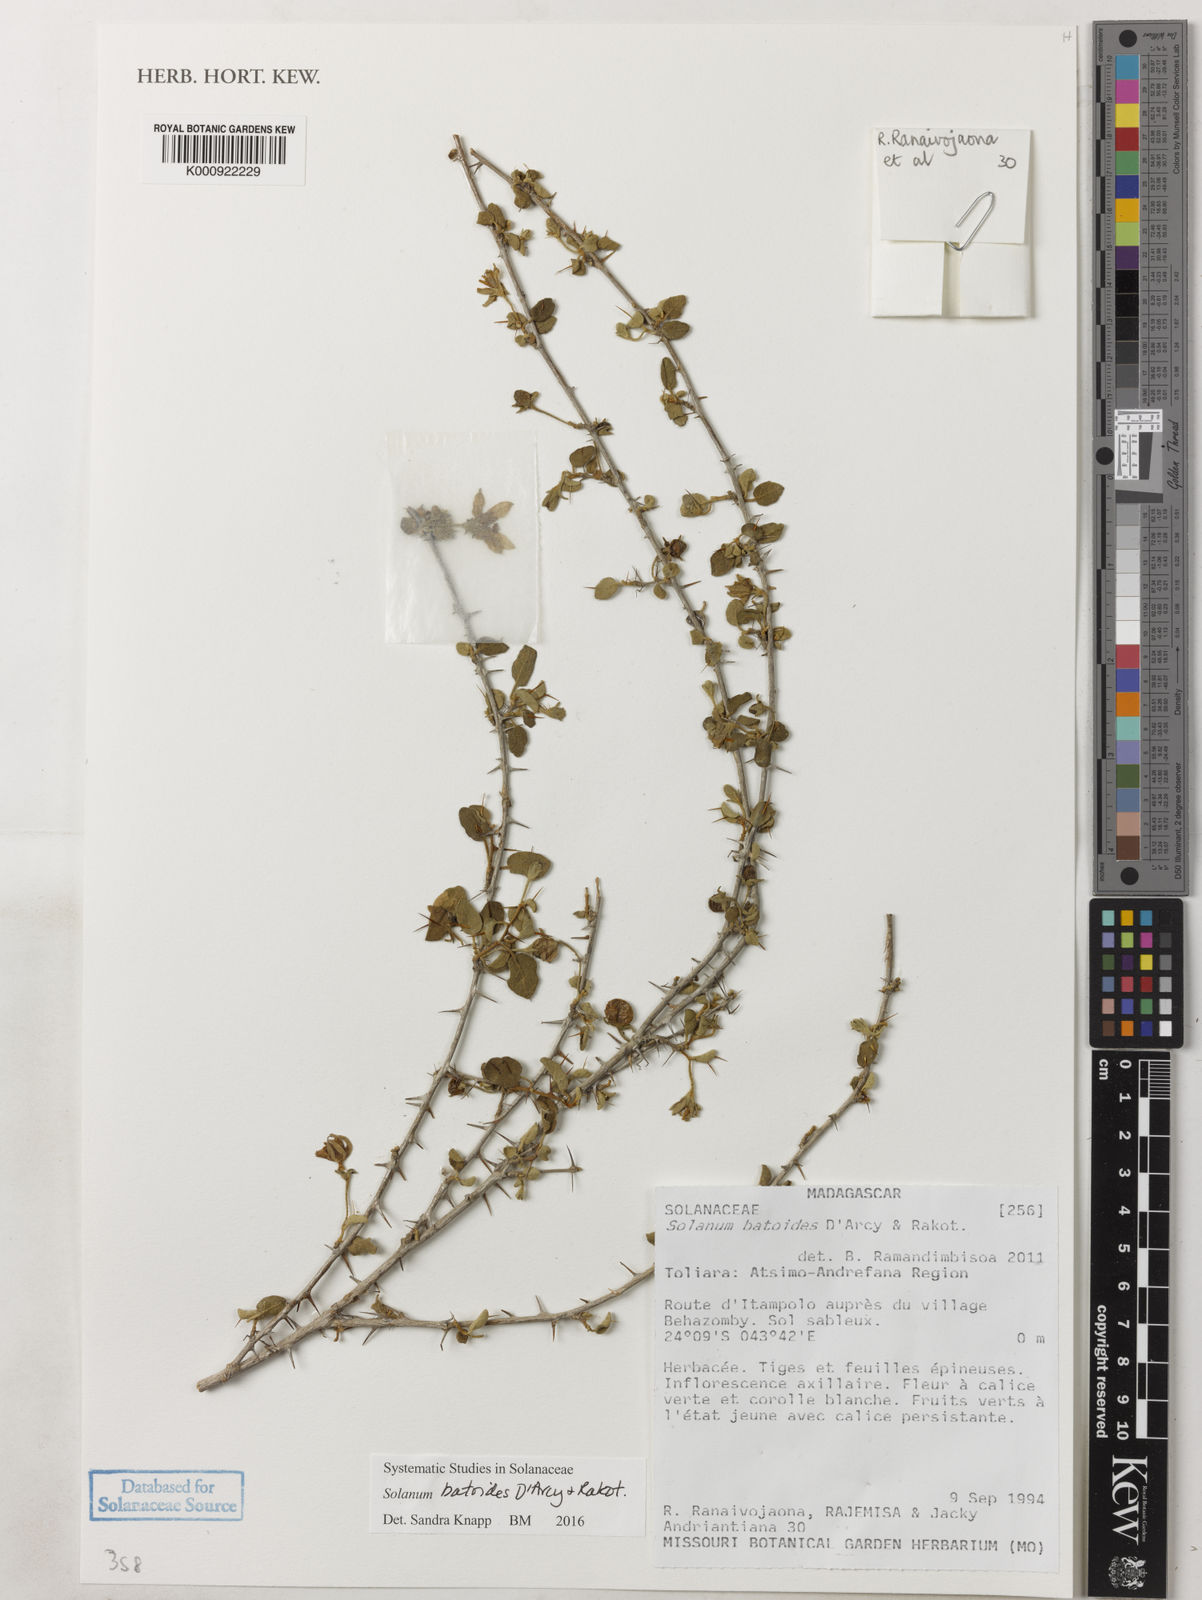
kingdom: Plantae
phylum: Tracheophyta
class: Magnoliopsida
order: Solanales
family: Solanaceae
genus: Solanum
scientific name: Solanum batoides
